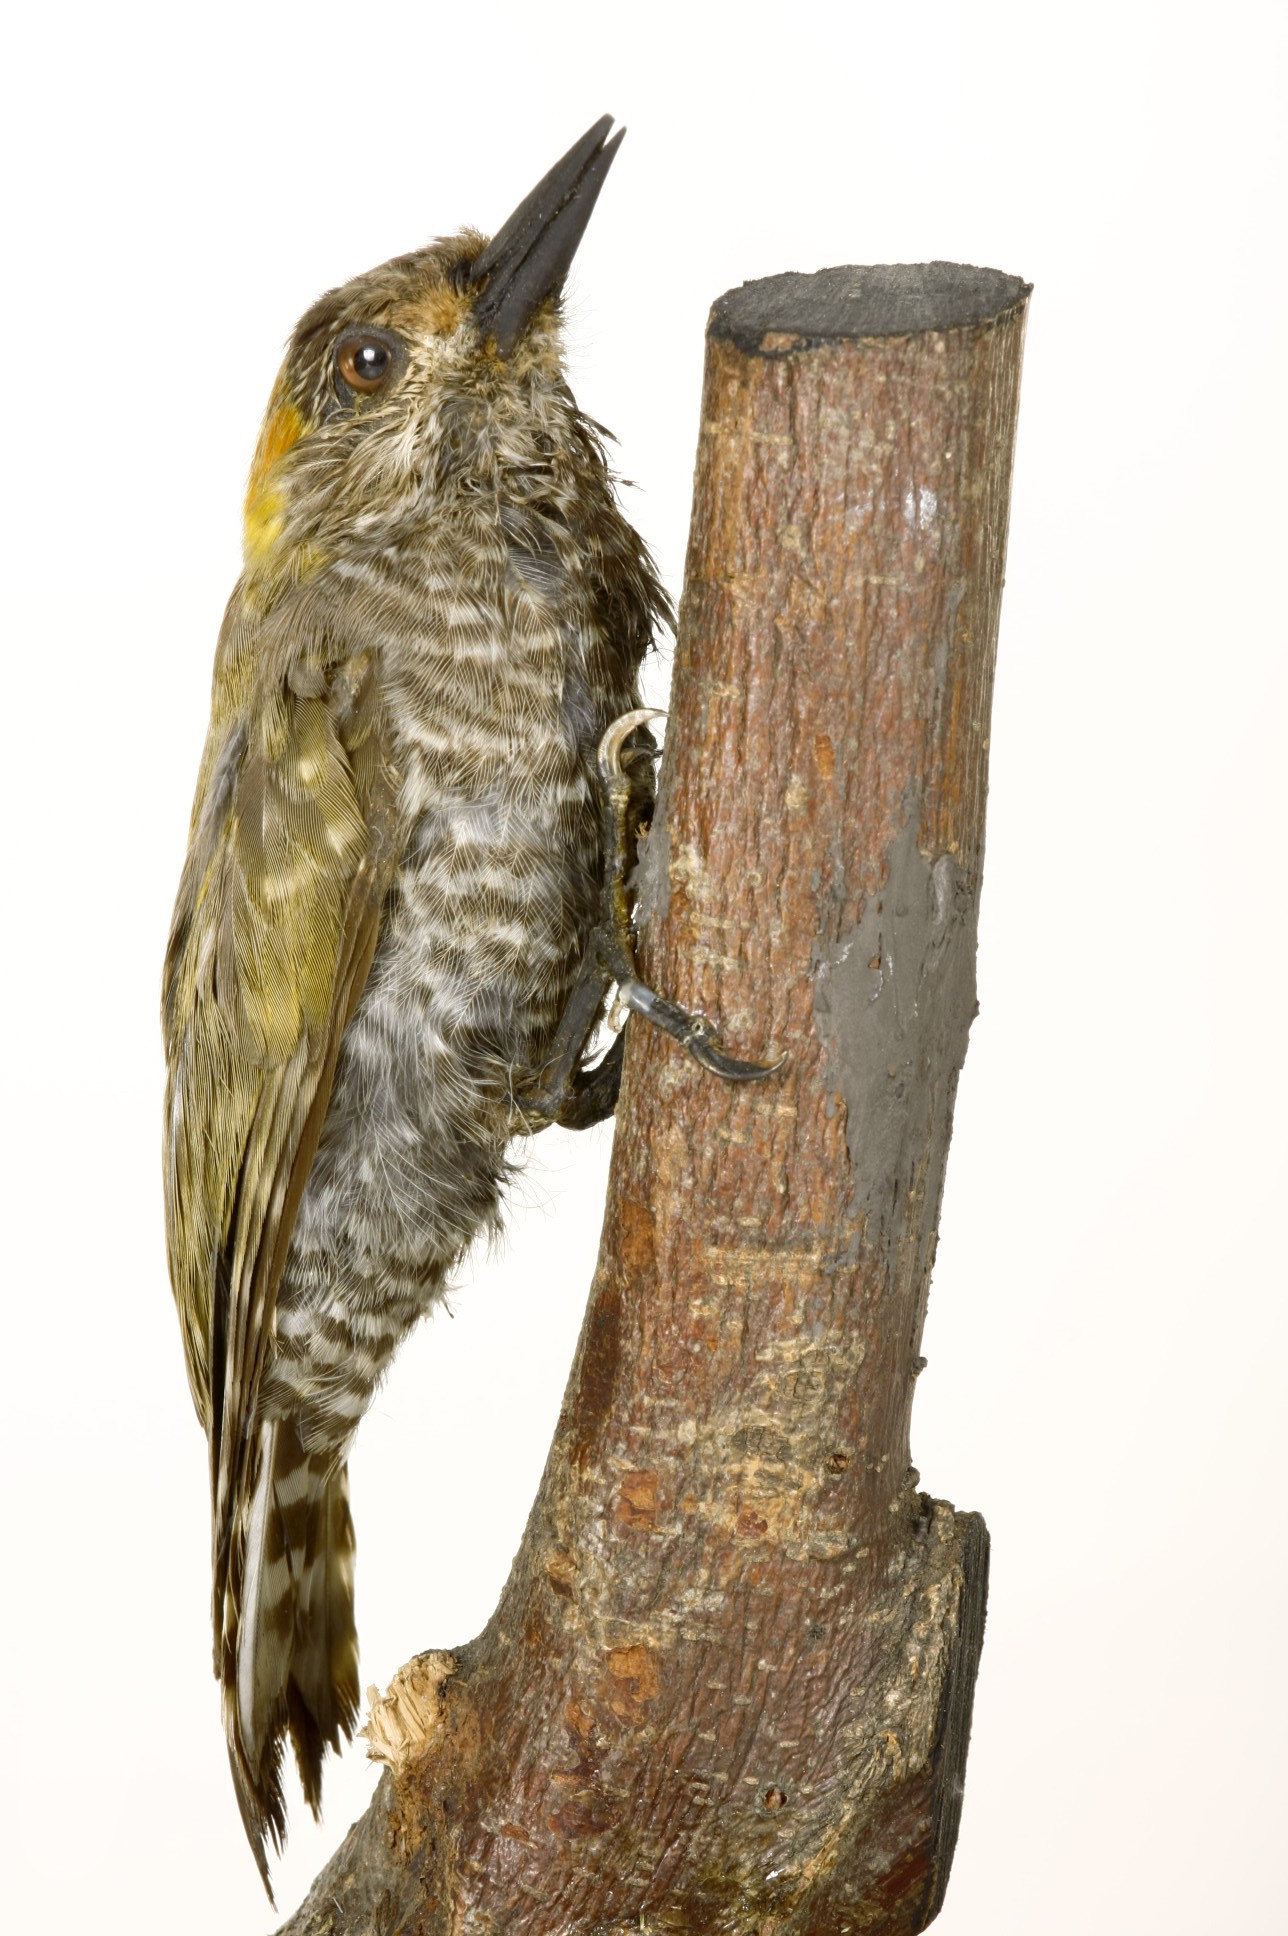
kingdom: Animalia
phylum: Chordata
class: Aves
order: Piciformes
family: Picidae
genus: Veniliornis
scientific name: Veniliornis maculifrons
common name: Yellow-eared woodpecker
